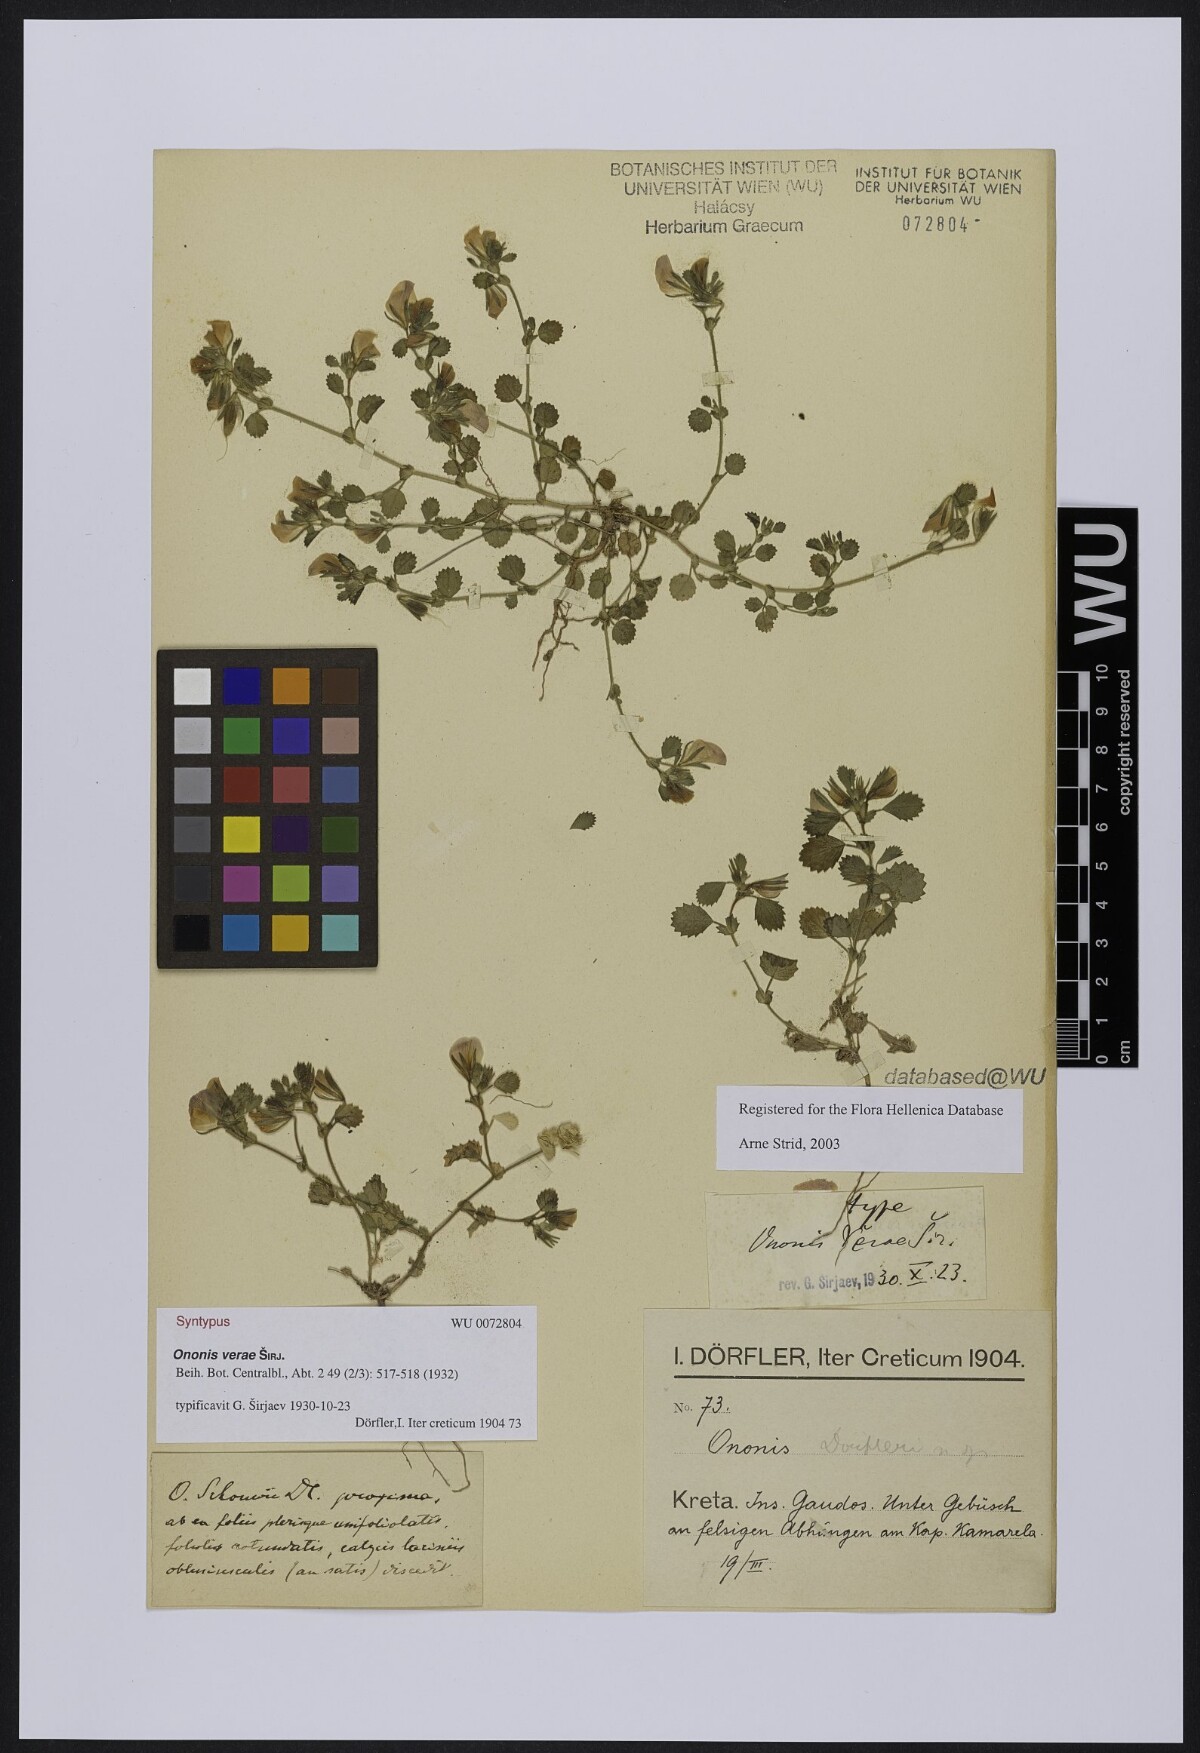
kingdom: Plantae
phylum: Tracheophyta
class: Magnoliopsida
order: Fabales
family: Fabaceae
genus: Ononis
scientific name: Ononis verae
